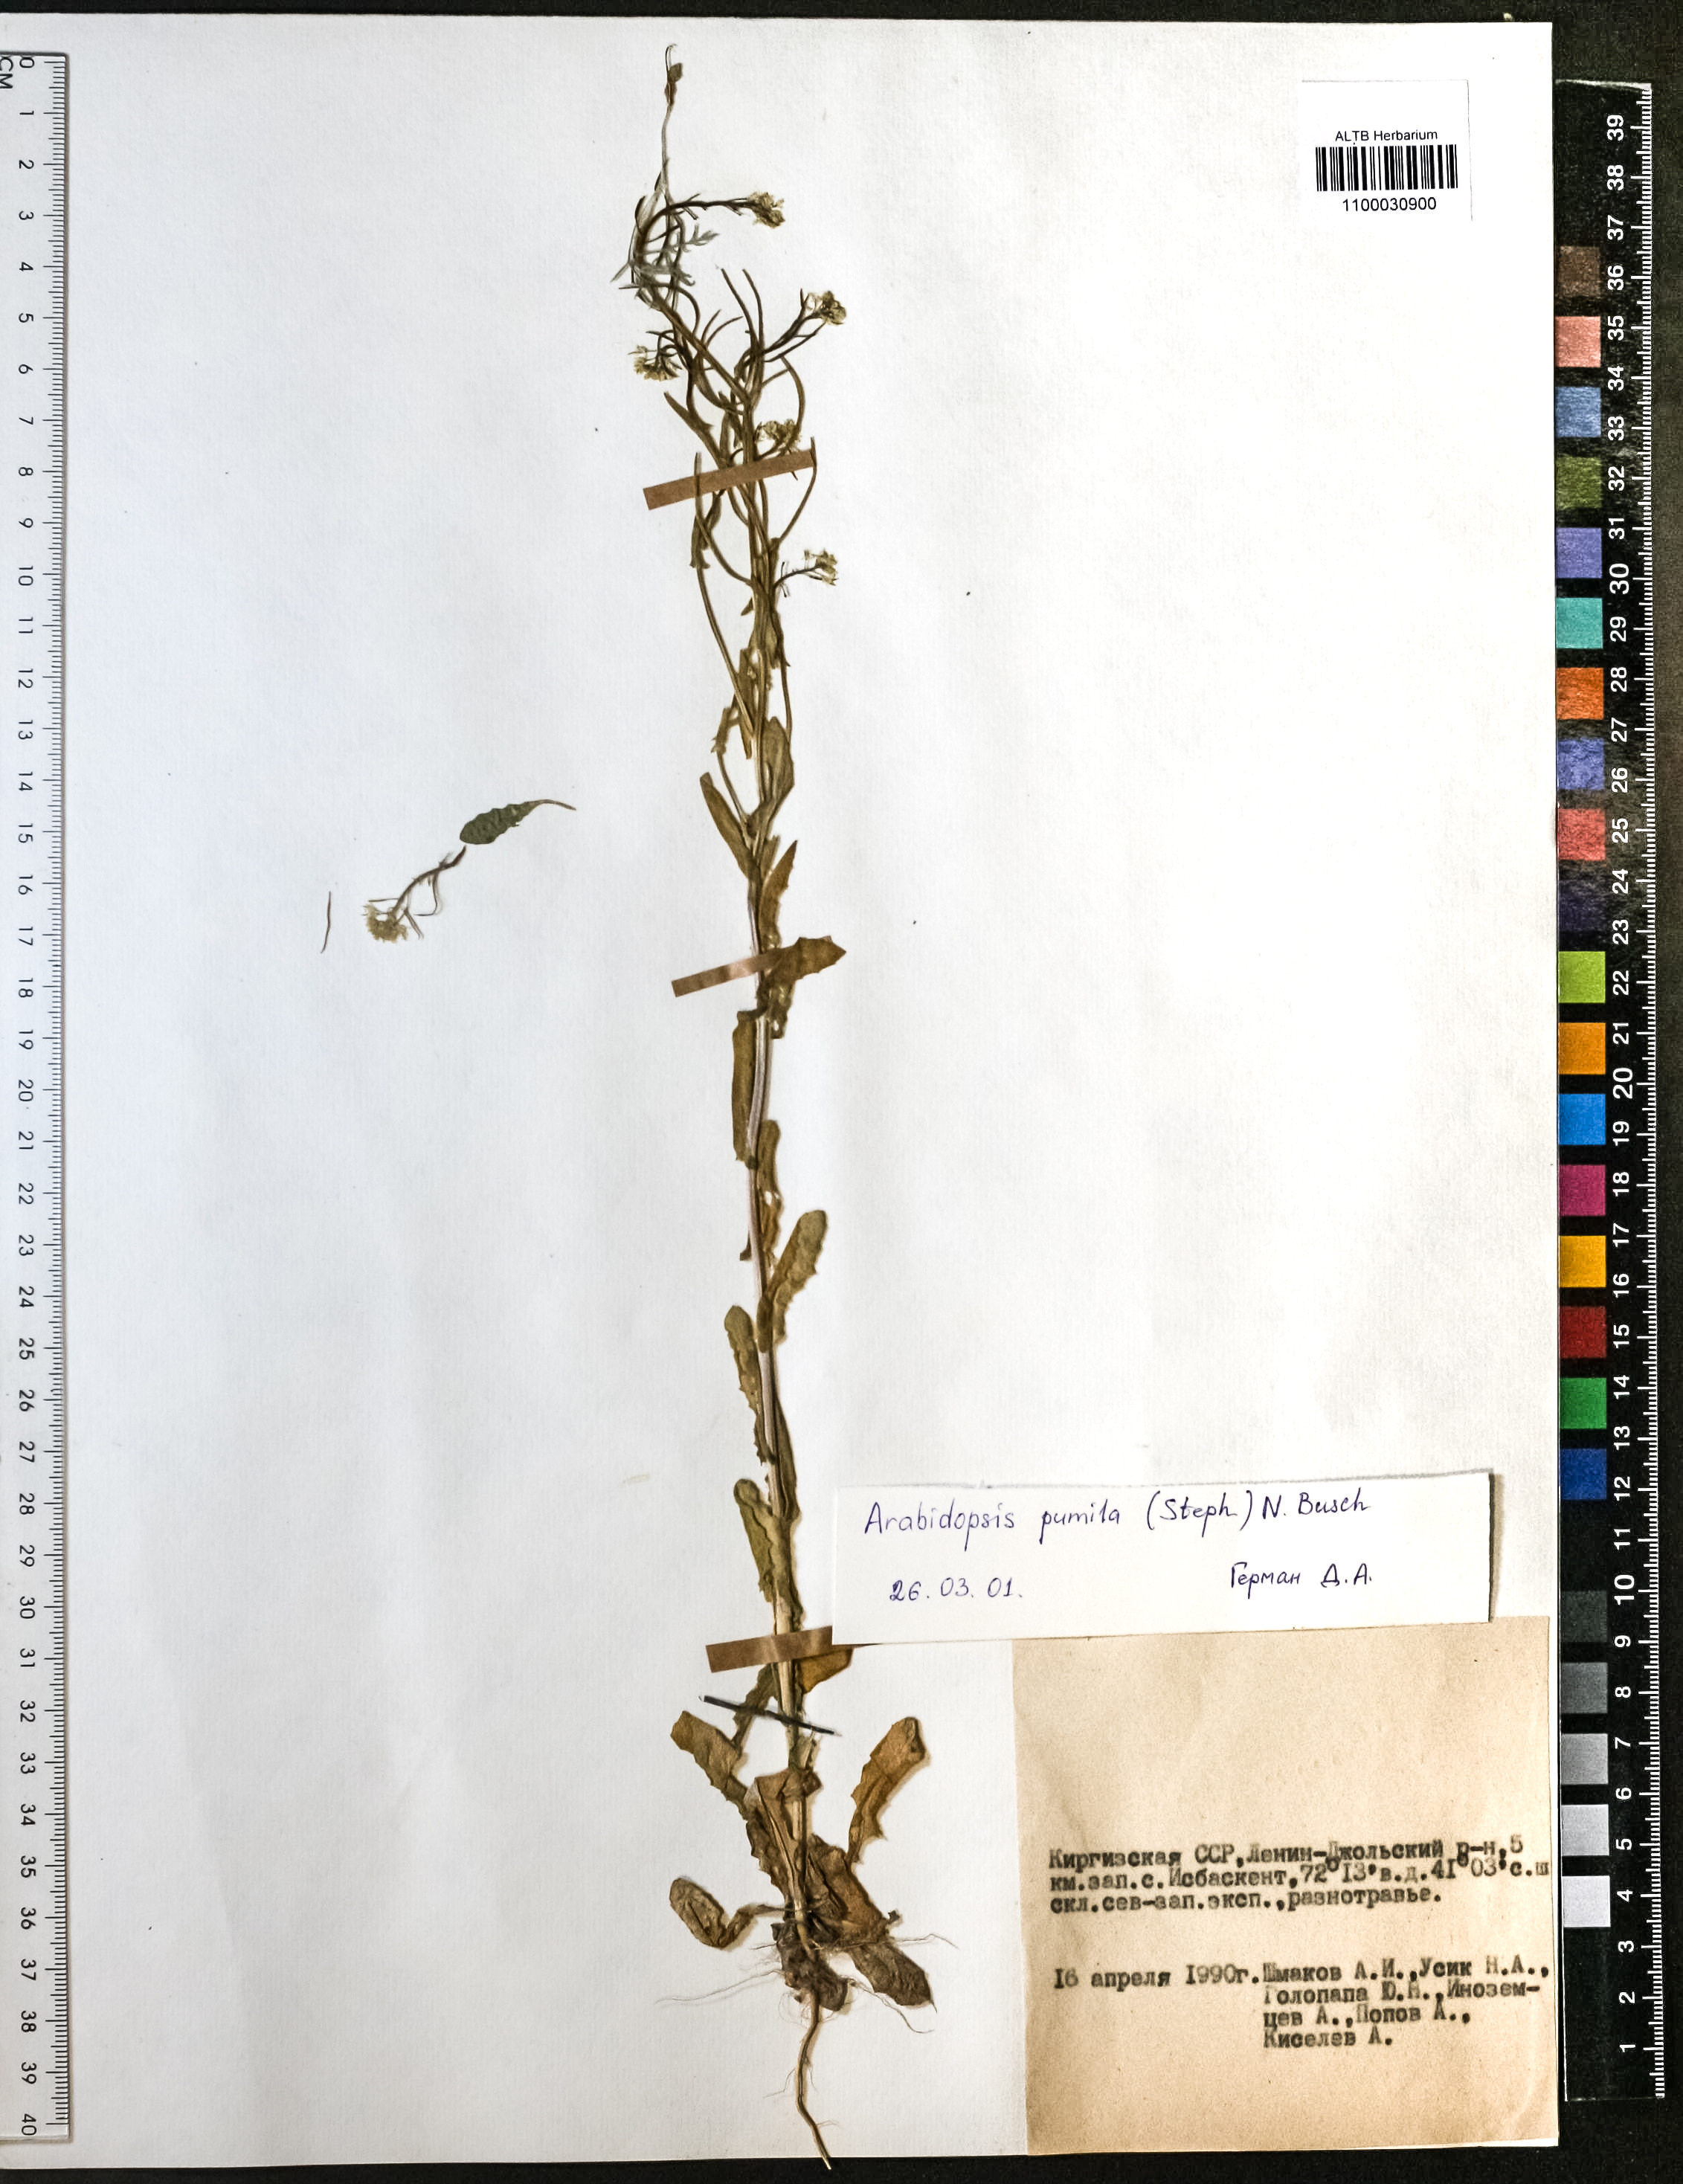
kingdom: Plantae
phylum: Tracheophyta
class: Magnoliopsida
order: Brassicales
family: Brassicaceae
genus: Sisymbrium
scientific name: Sisymbrium pumilum
